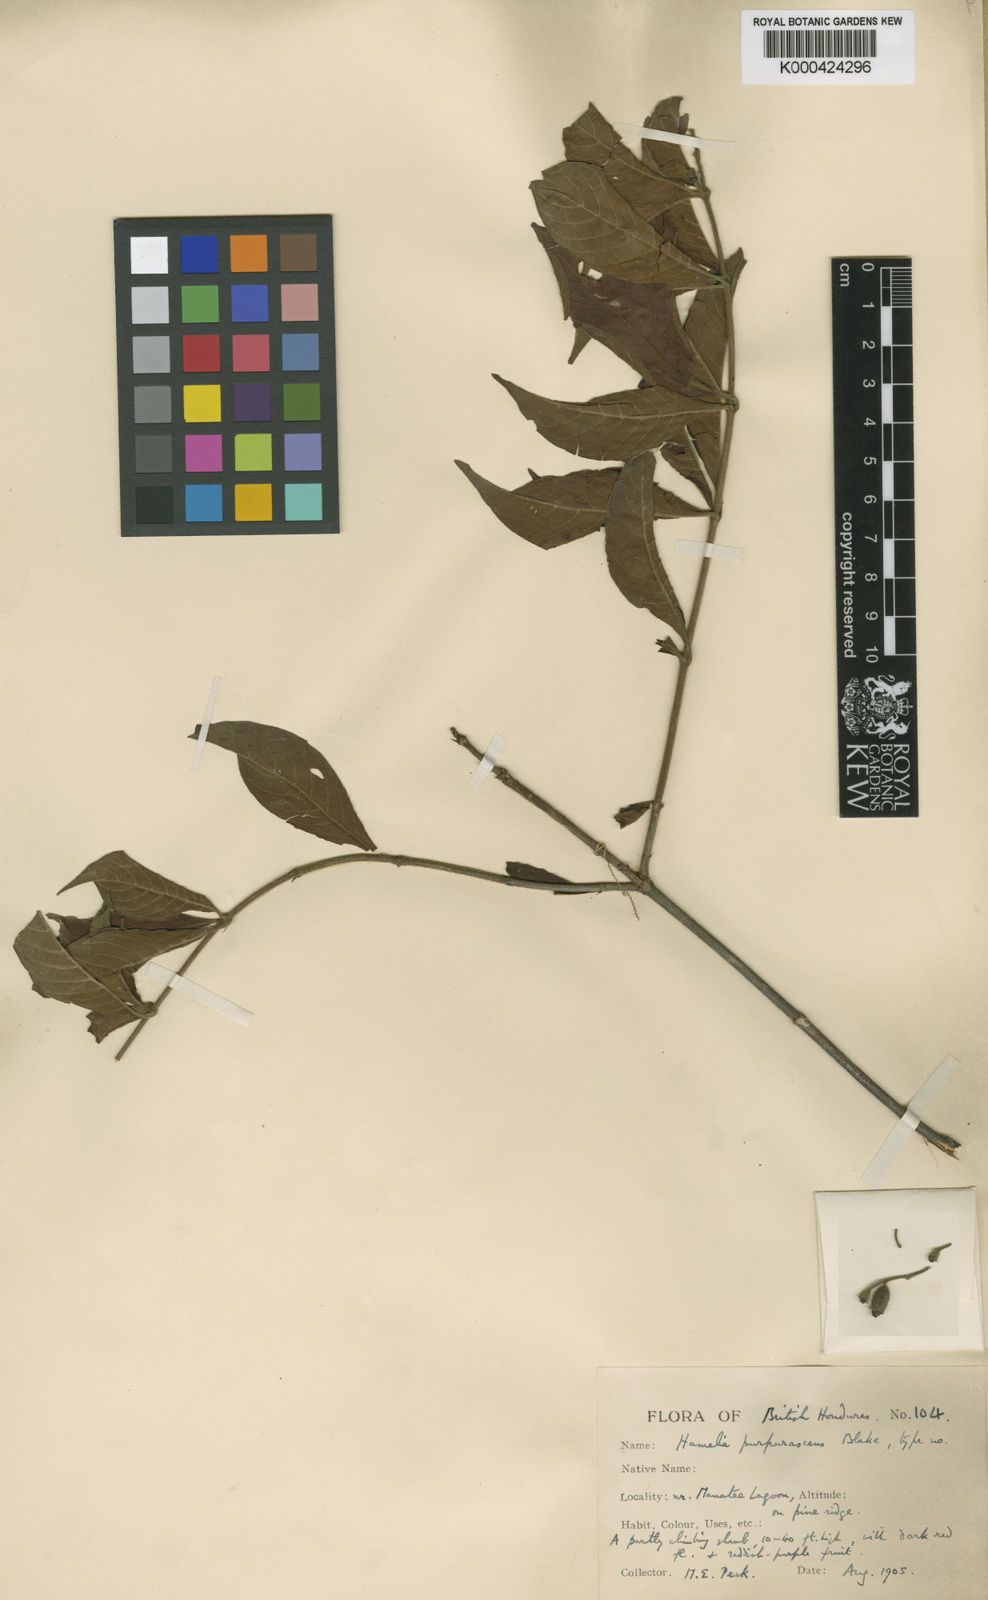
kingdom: Plantae
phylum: Tracheophyta
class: Magnoliopsida
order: Gentianales
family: Rubiaceae
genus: Hamelia
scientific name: Hamelia rovirosae
